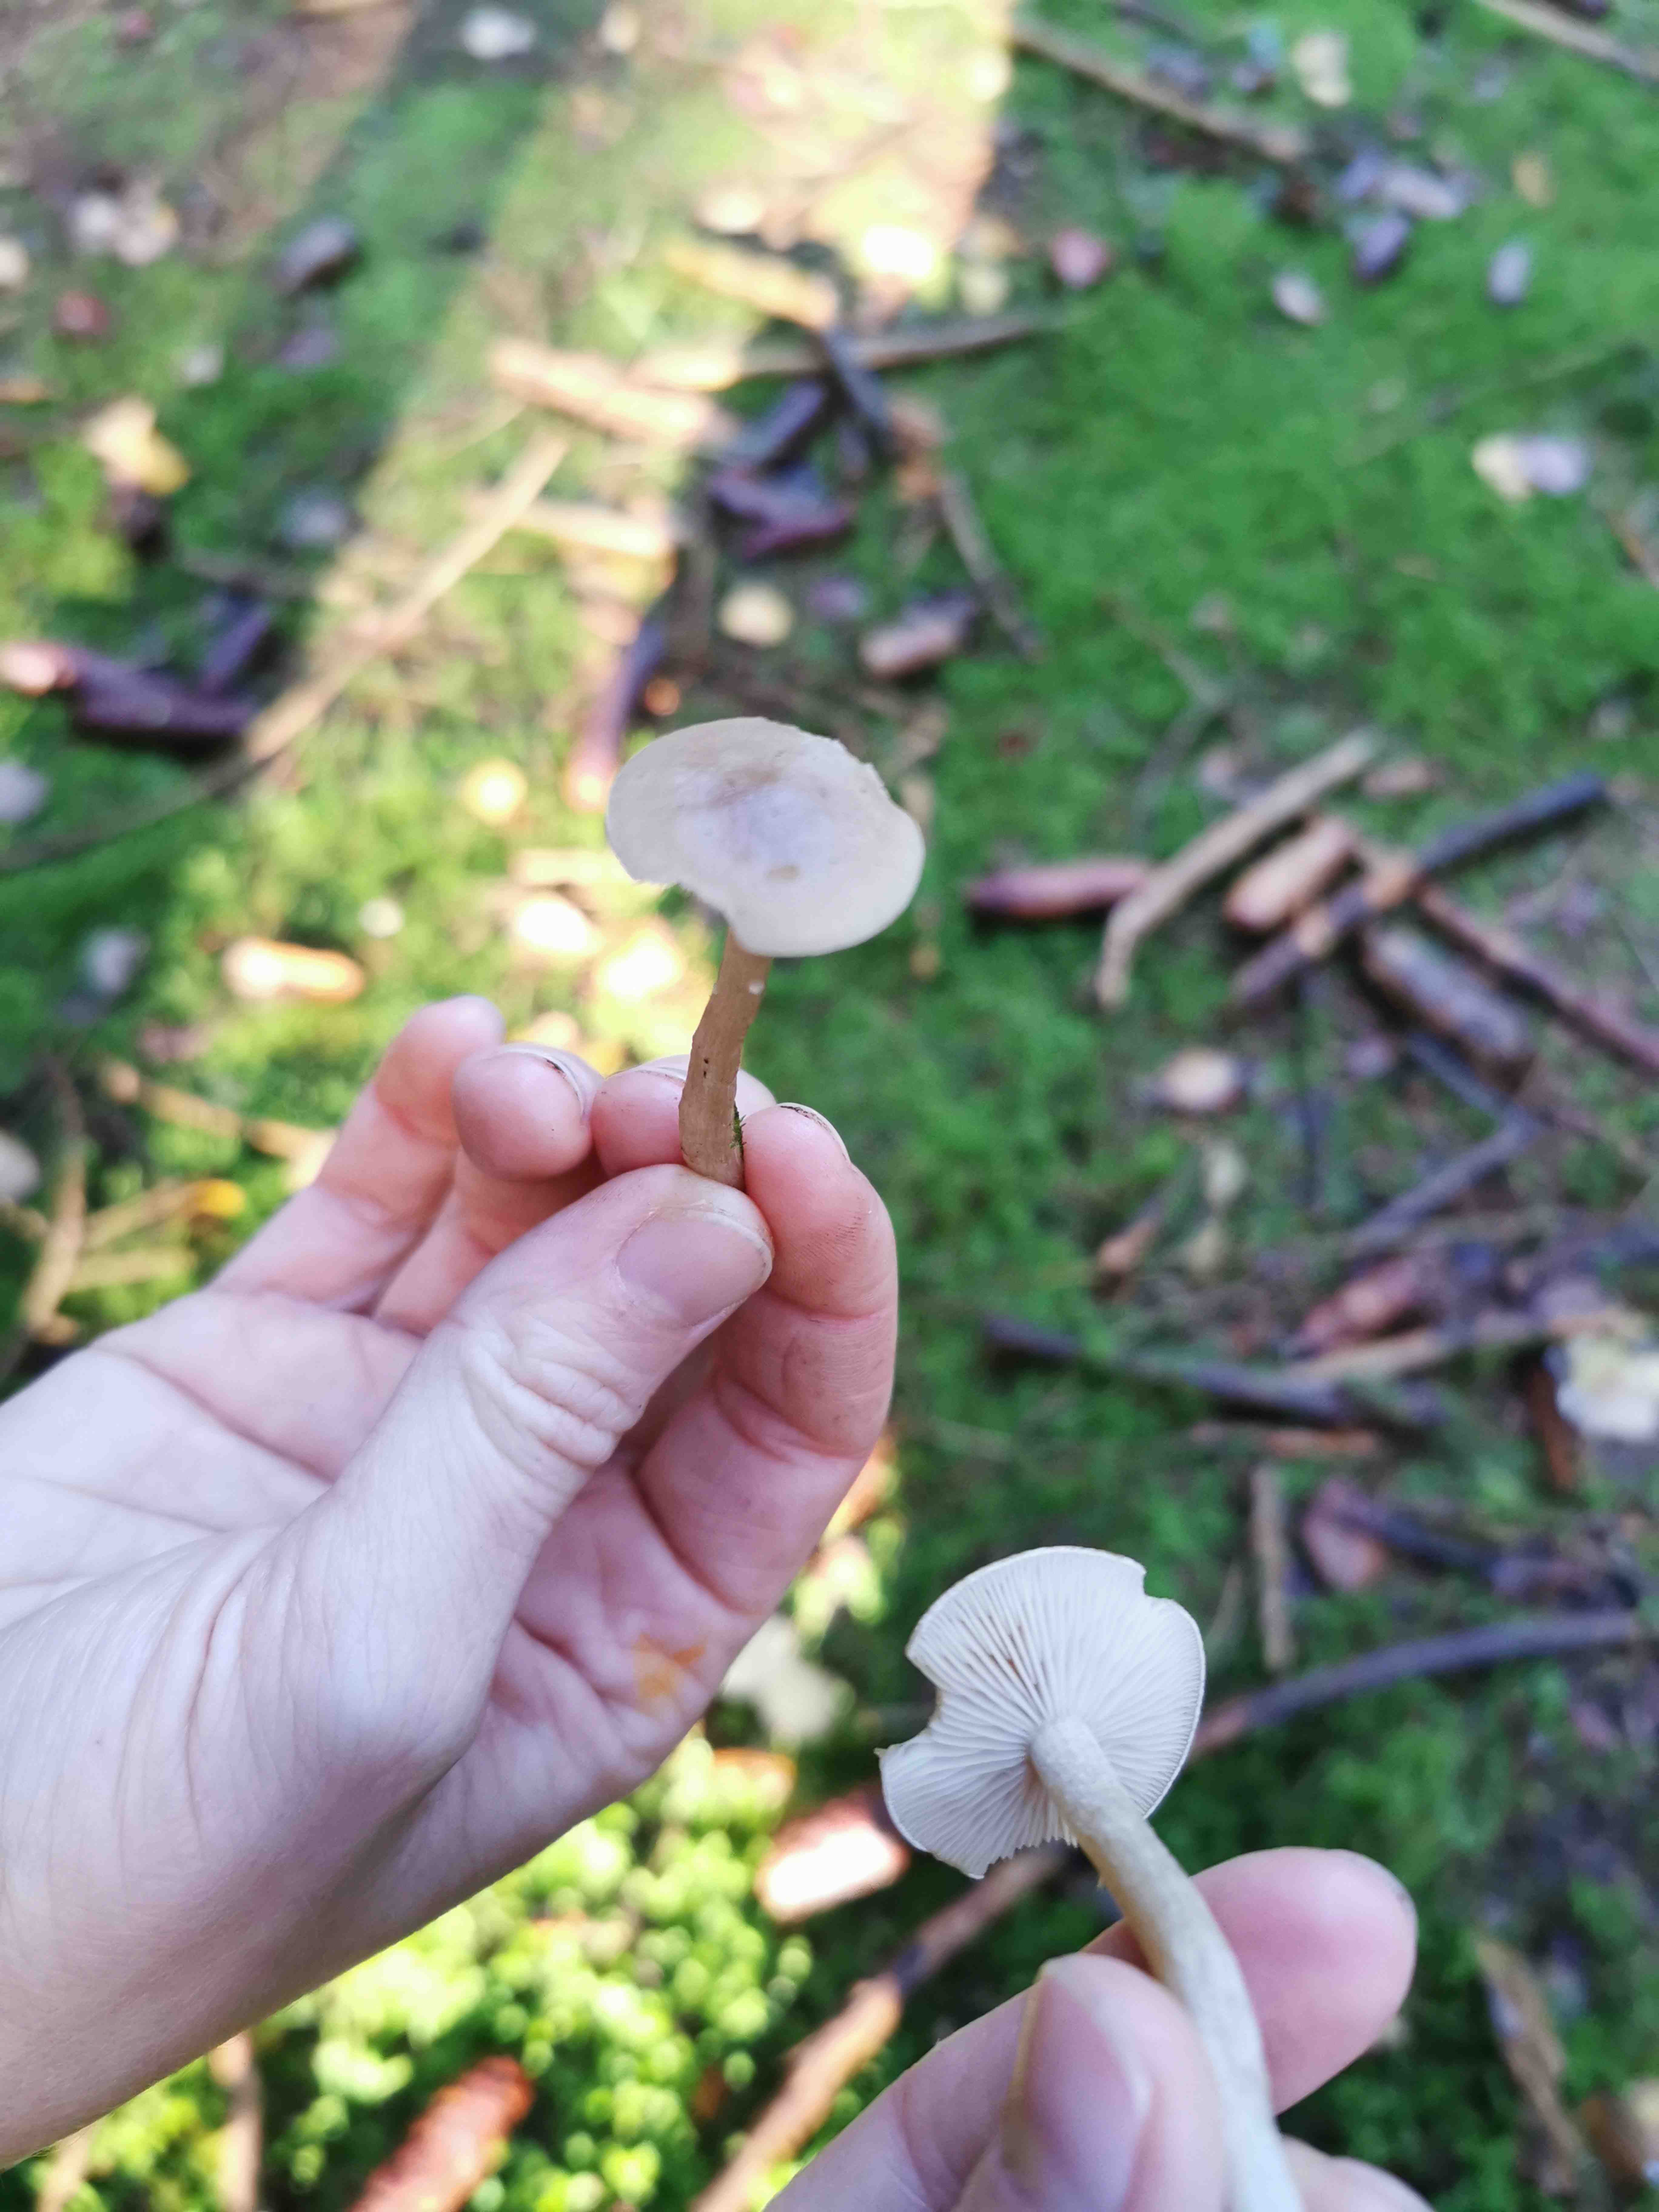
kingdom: Fungi
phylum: Basidiomycota
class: Agaricomycetes
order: Agaricales
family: Tricholomataceae
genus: Clitocybe
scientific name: Clitocybe fragrans
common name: vellugtende tragthat
